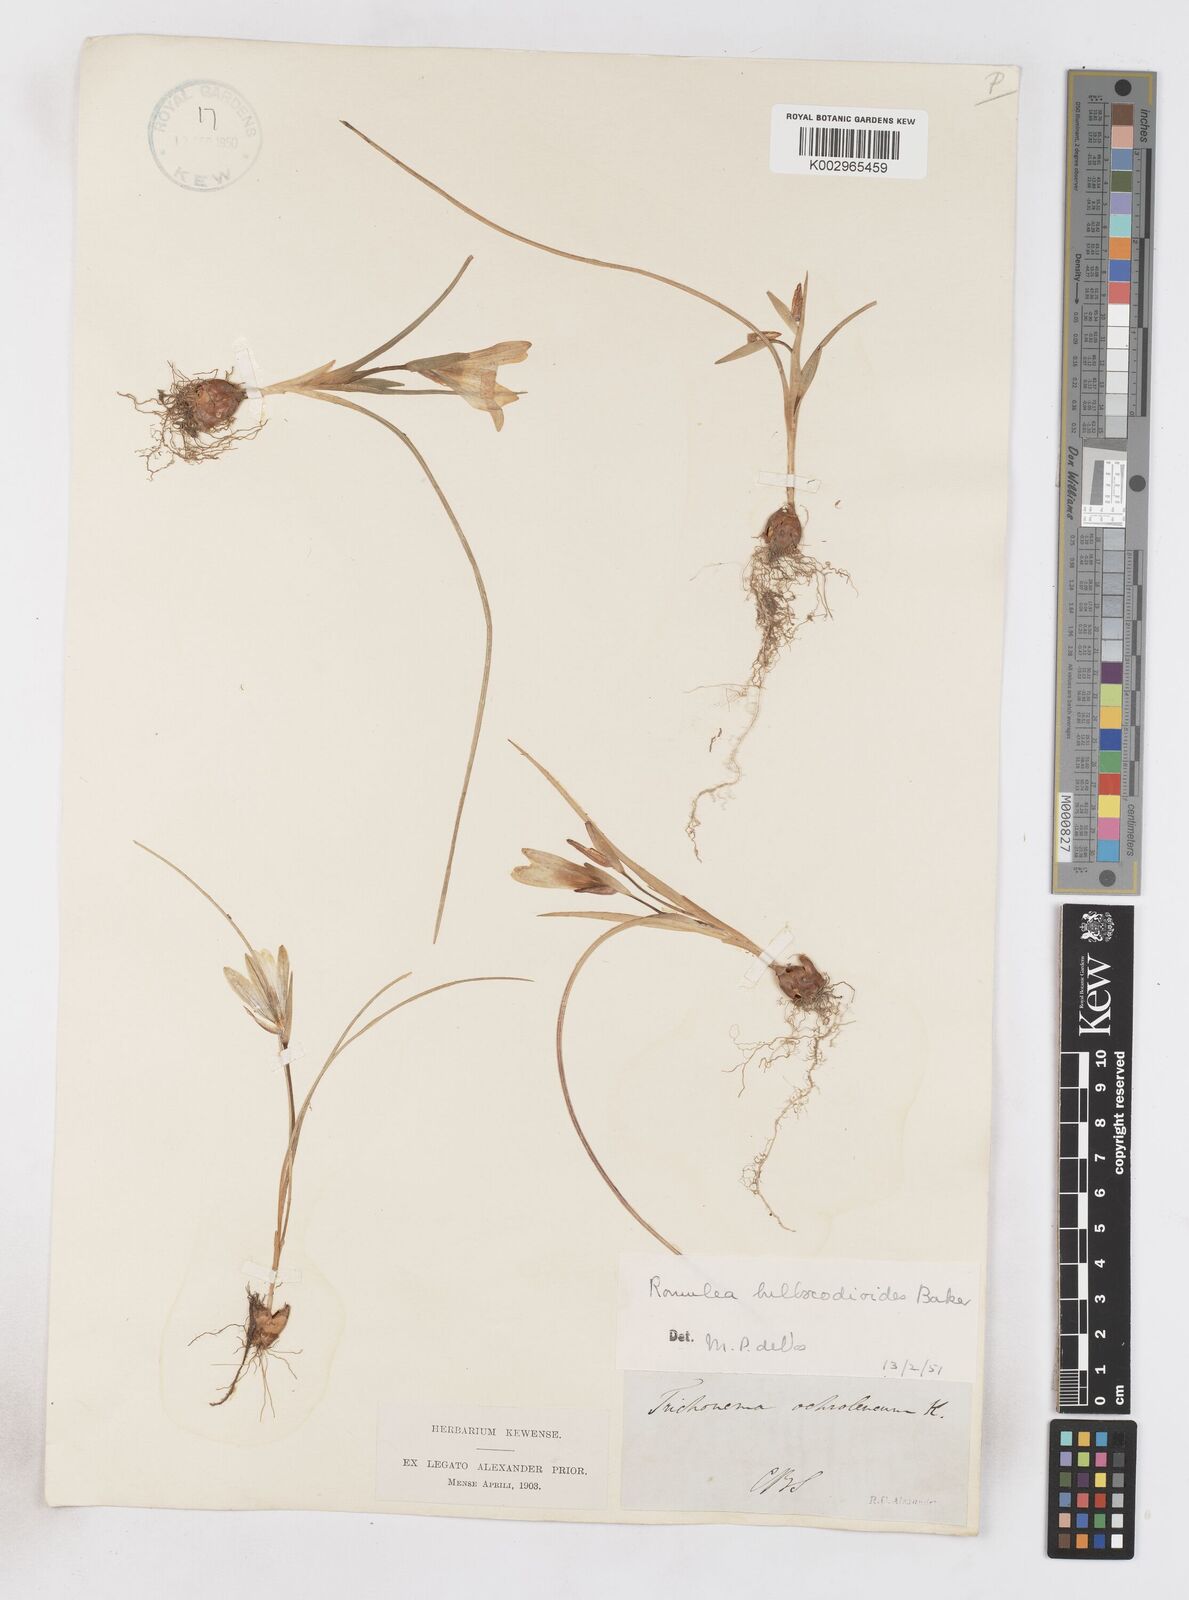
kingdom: Plantae
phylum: Tracheophyta
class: Liliopsida
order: Asparagales
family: Iridaceae
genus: Romulea
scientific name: Romulea flava
